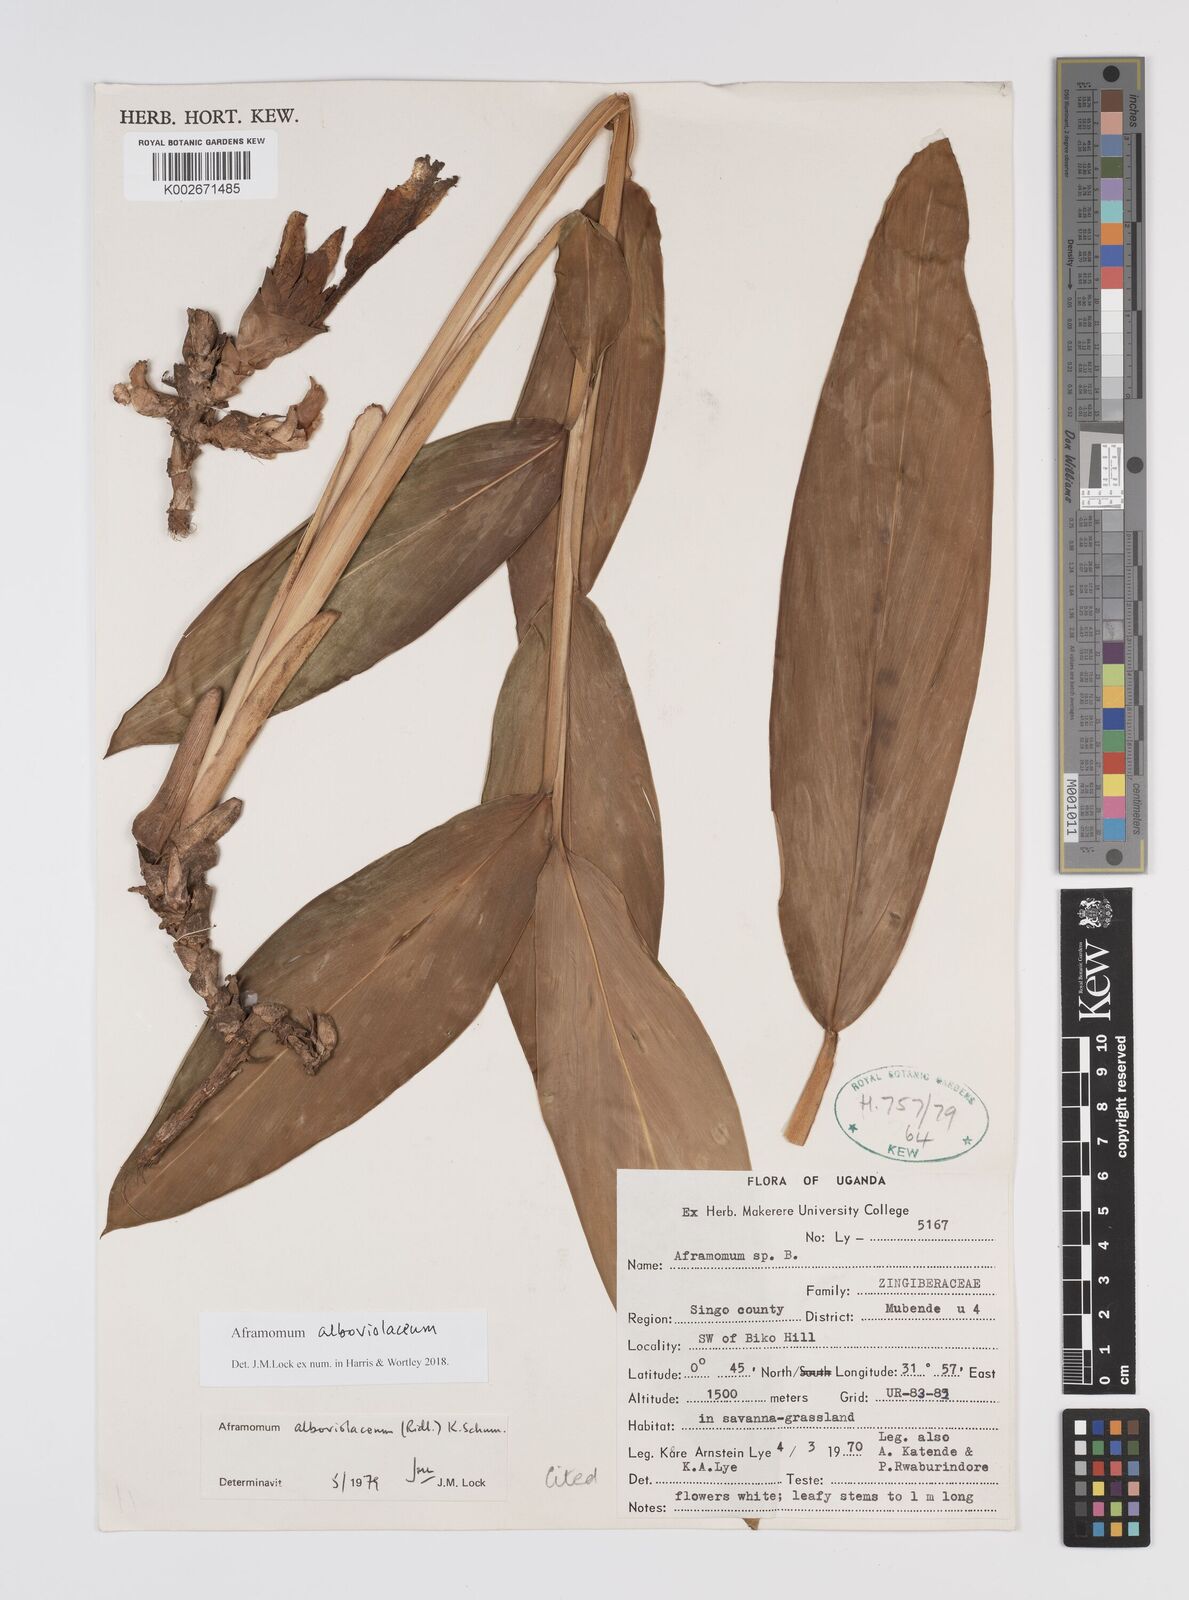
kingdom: Plantae
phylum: Tracheophyta
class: Liliopsida
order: Zingiberales
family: Zingiberaceae
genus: Aframomum
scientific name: Aframomum alboviolaceum
